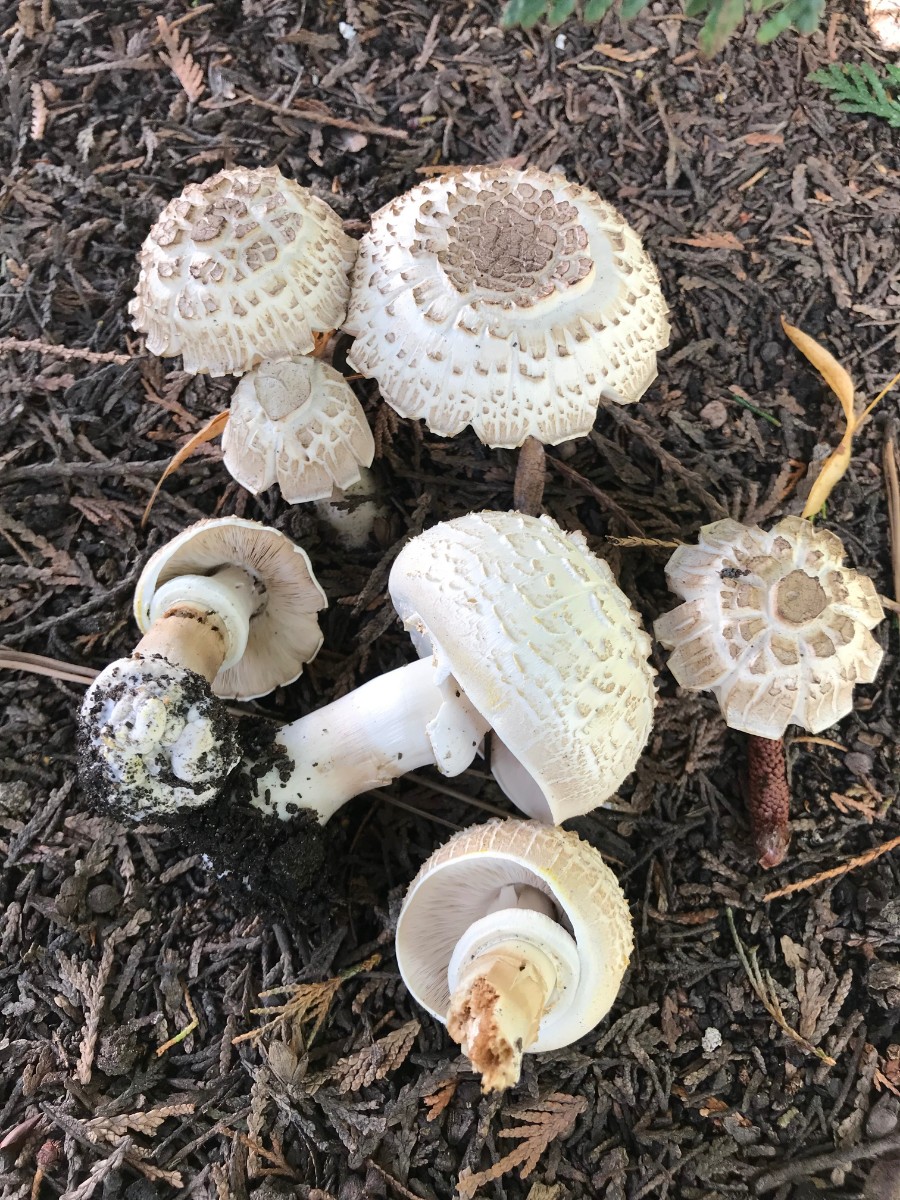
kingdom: Fungi
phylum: Basidiomycota
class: Agaricomycetes
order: Agaricales
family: Agaricaceae
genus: Agaricus
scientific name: Agaricus xanthodermus
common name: karbol-champignon
